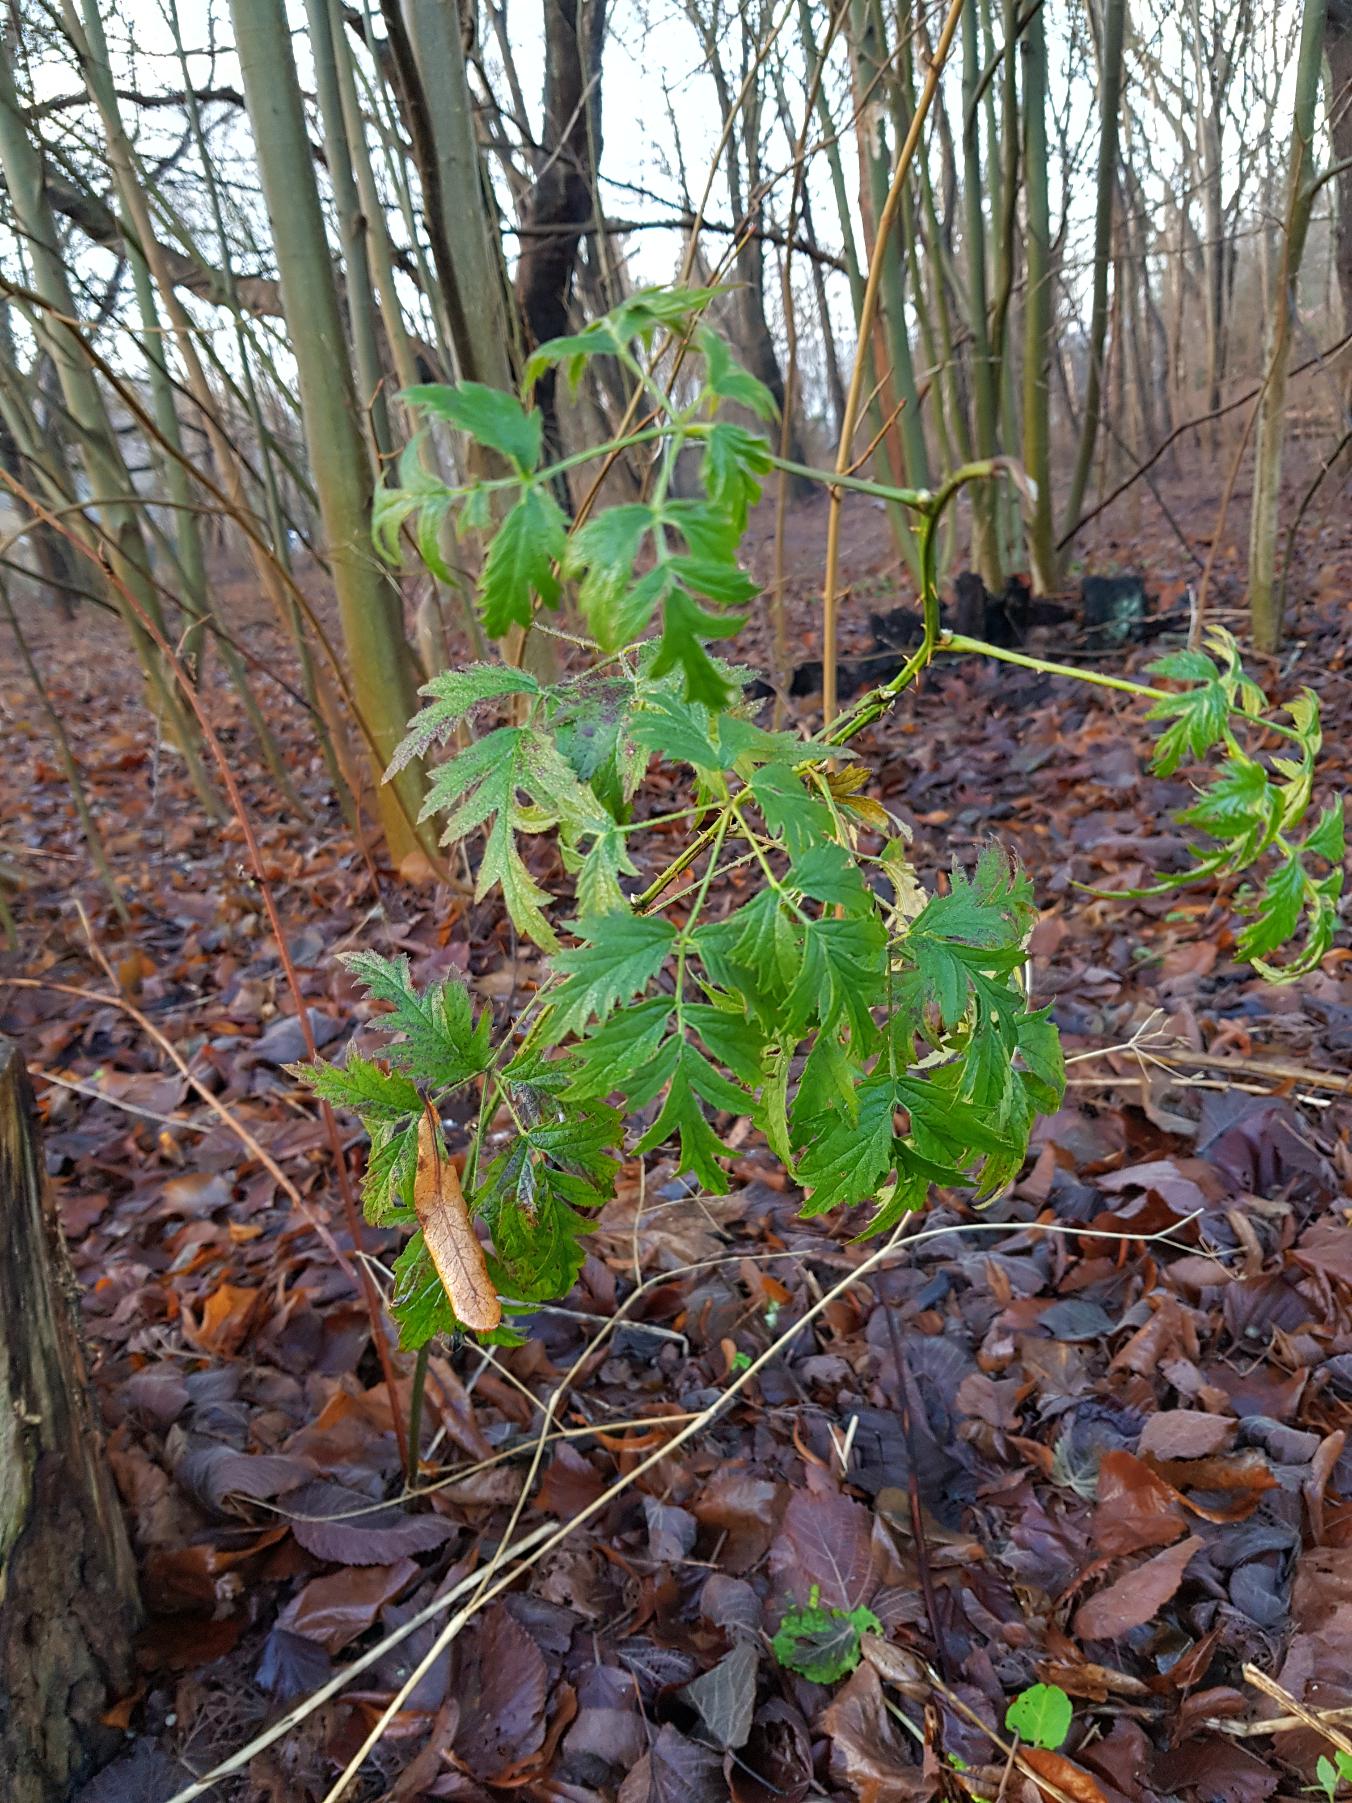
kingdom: Plantae
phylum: Tracheophyta
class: Magnoliopsida
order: Rosales
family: Rosaceae
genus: Rubus
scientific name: Rubus laciniatus
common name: Fliget brombær
